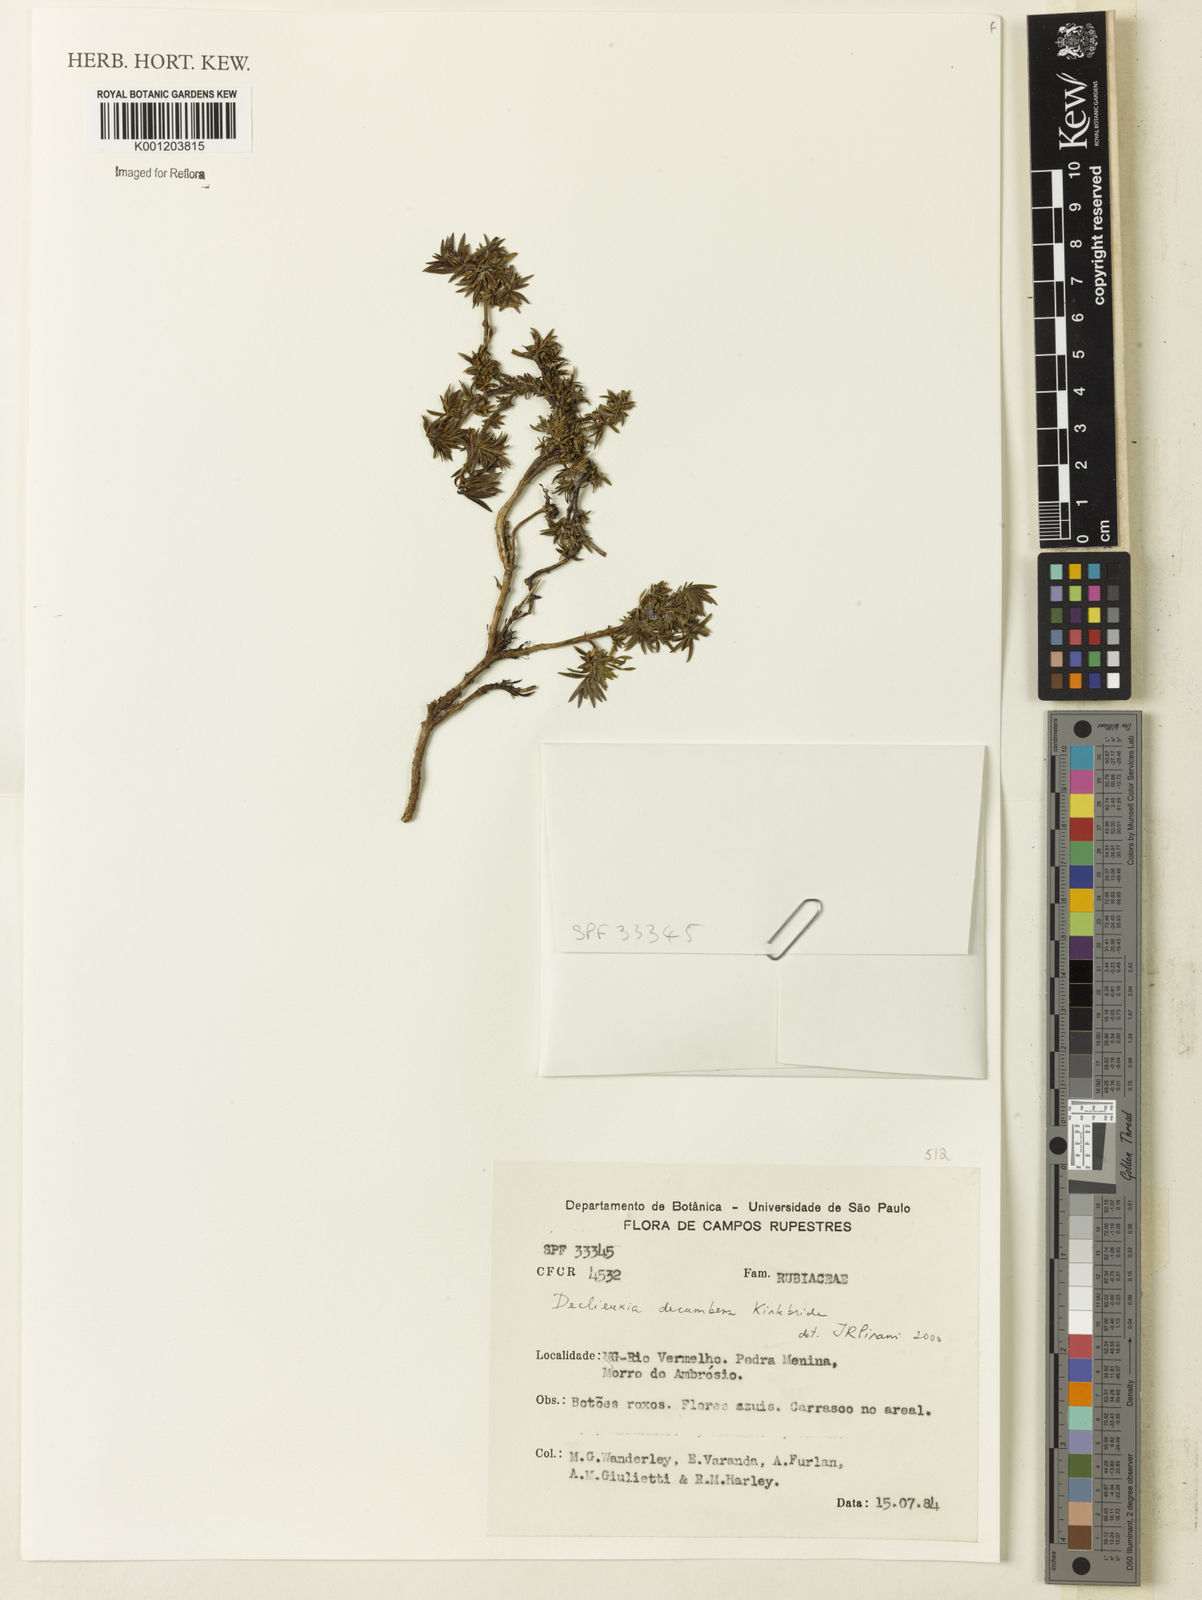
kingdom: Plantae
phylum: Tracheophyta
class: Magnoliopsida
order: Gentianales
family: Rubiaceae
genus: Declieuxia
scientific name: Declieuxia decumbens
